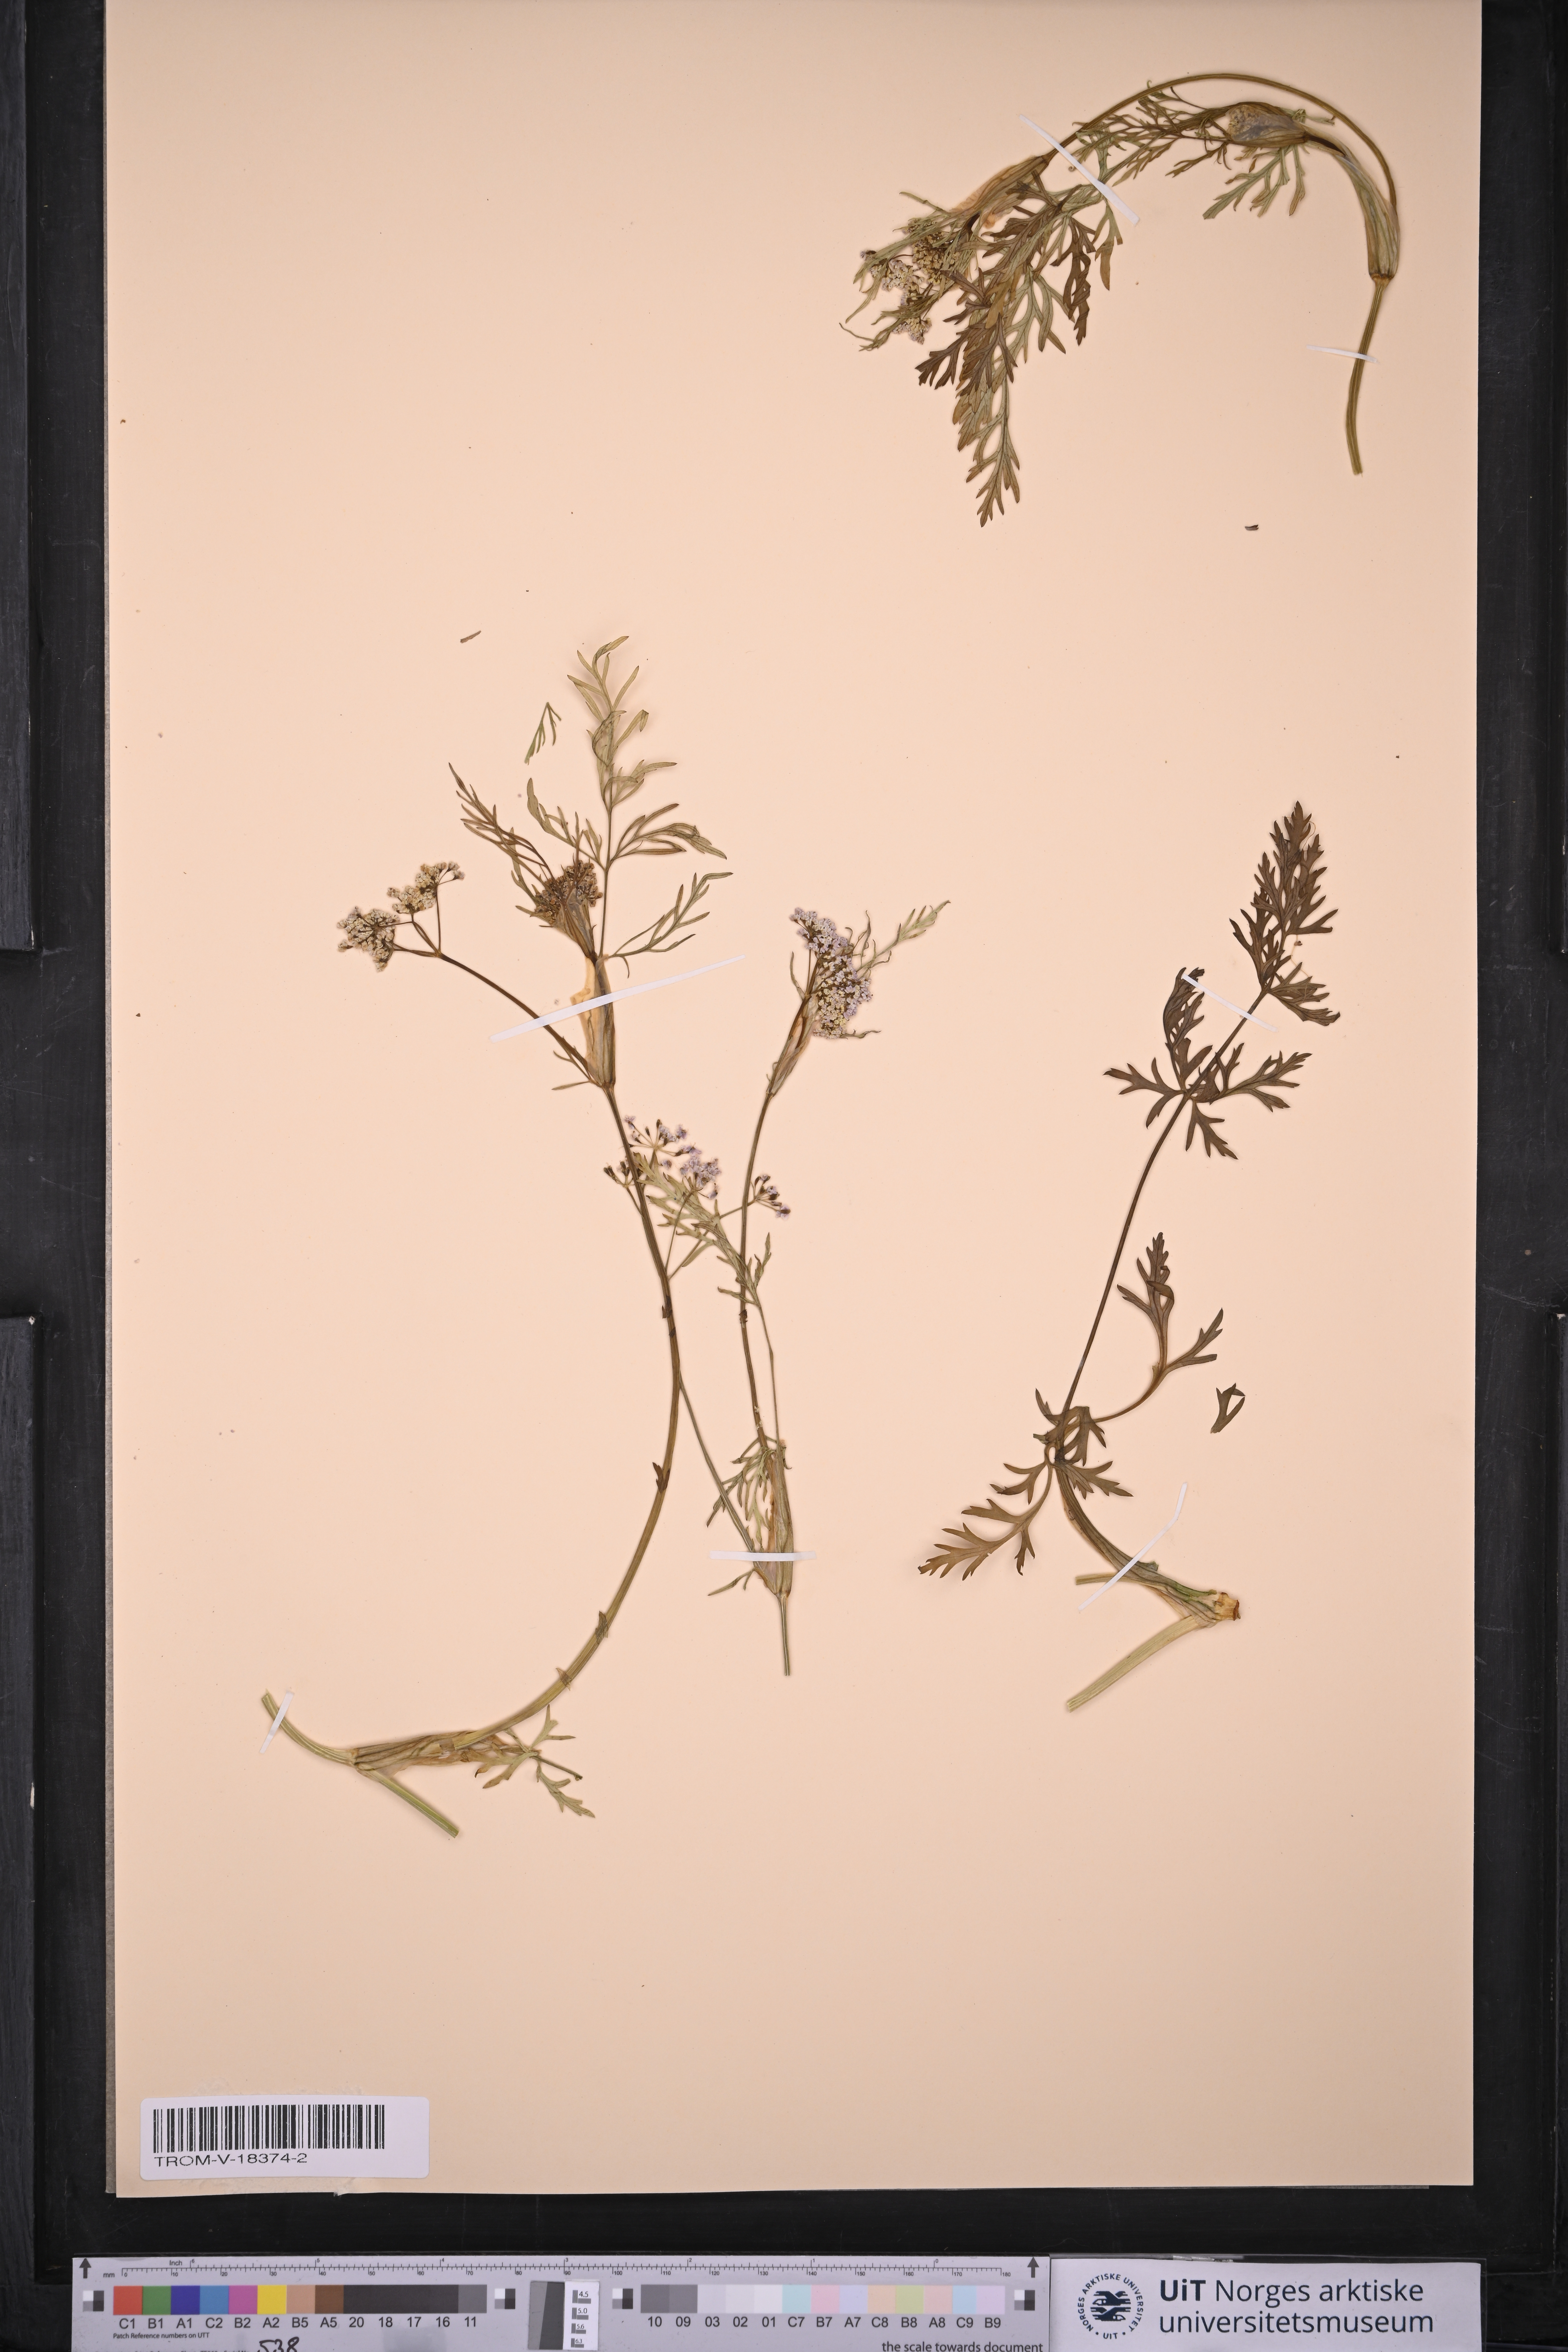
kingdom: Plantae
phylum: Tracheophyta
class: Magnoliopsida
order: Apiales
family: Apiaceae
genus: Carum
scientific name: Carum carvi
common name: Caraway
